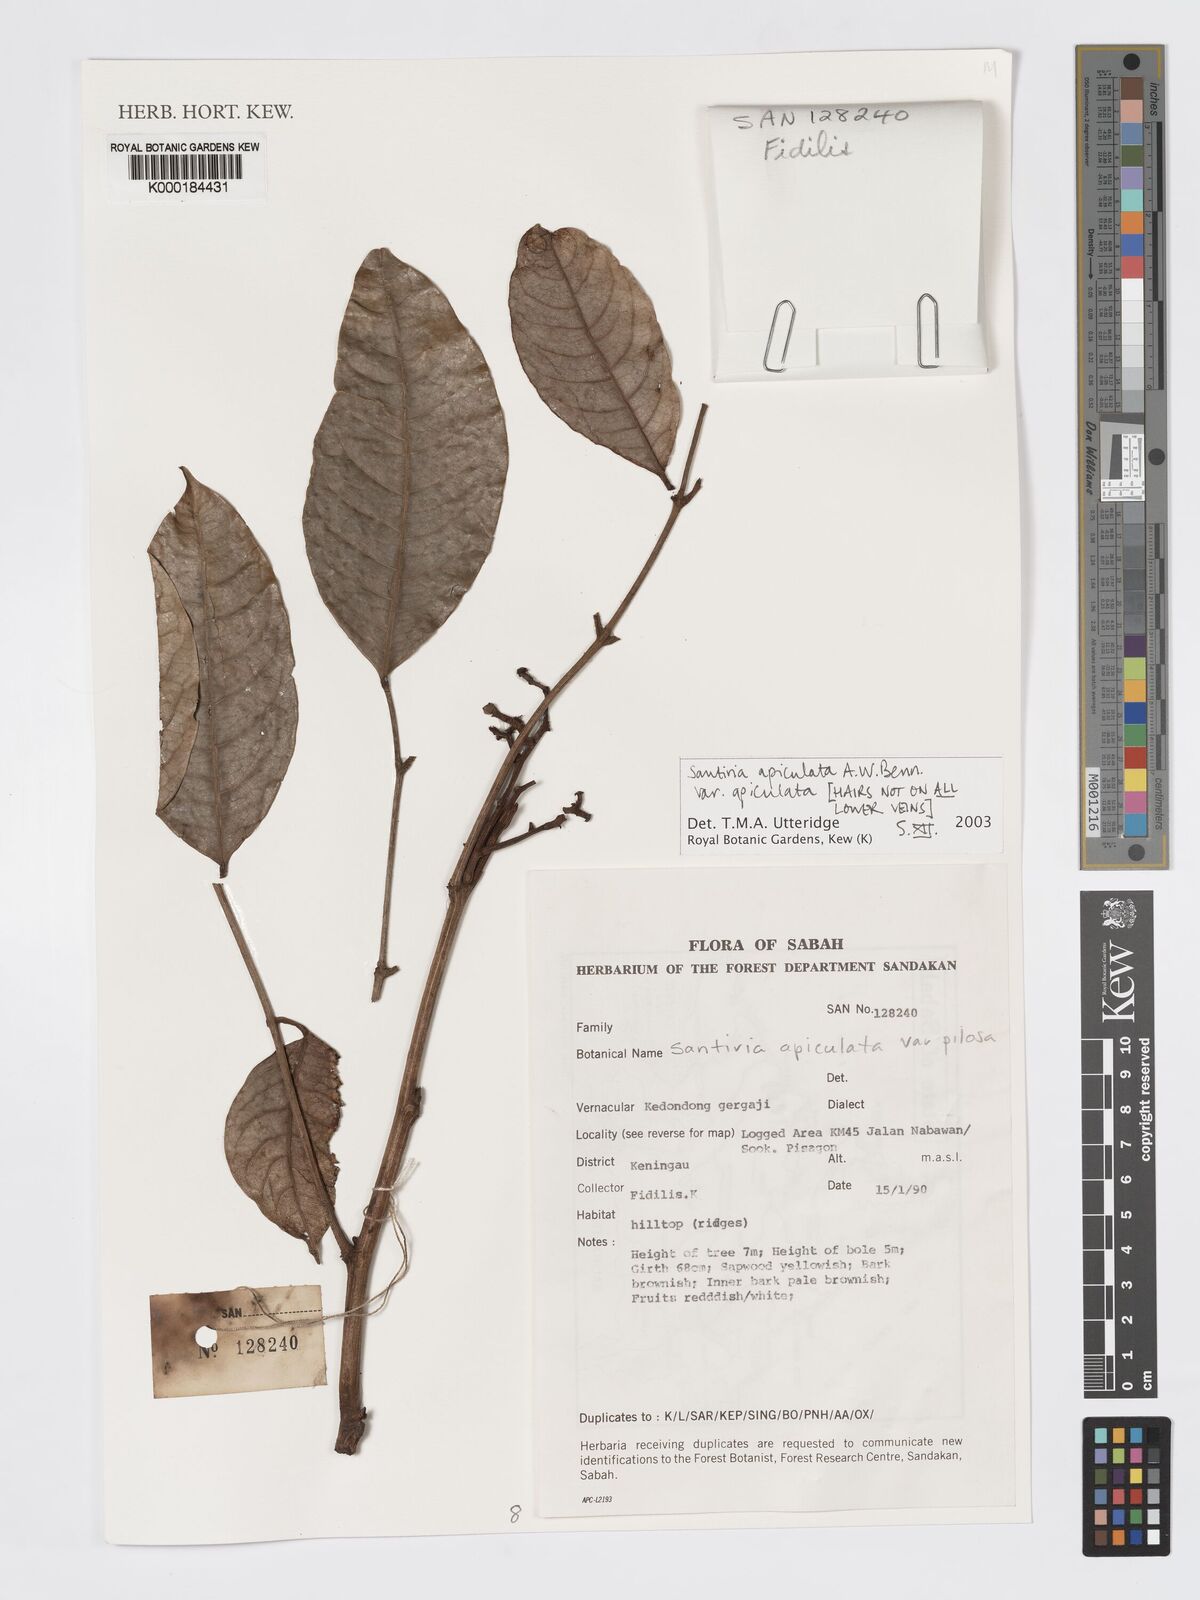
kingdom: Plantae
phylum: Tracheophyta
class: Magnoliopsida
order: Sapindales
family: Burseraceae
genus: Santiria
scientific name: Santiria apiculata
